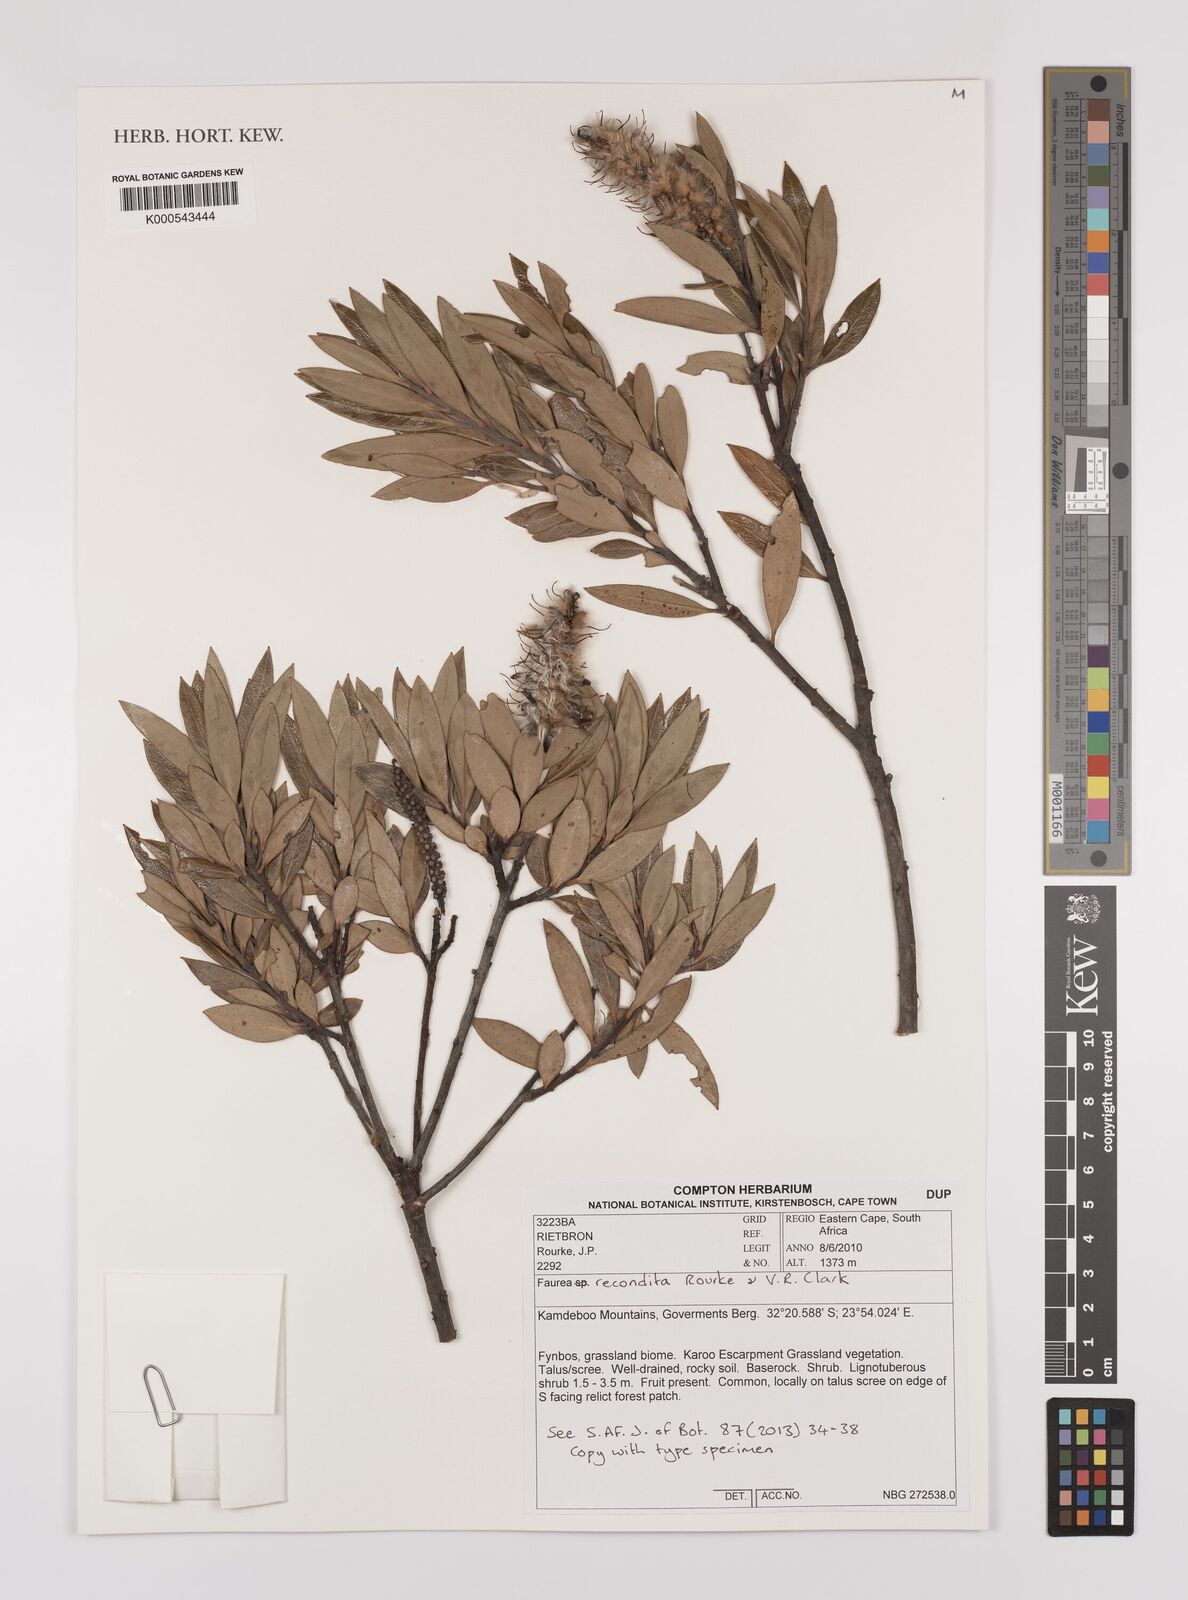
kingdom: Plantae
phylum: Tracheophyta
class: Magnoliopsida
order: Proteales
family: Proteaceae
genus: Faurea
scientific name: Faurea recondita
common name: Kamdeboo beechwood
